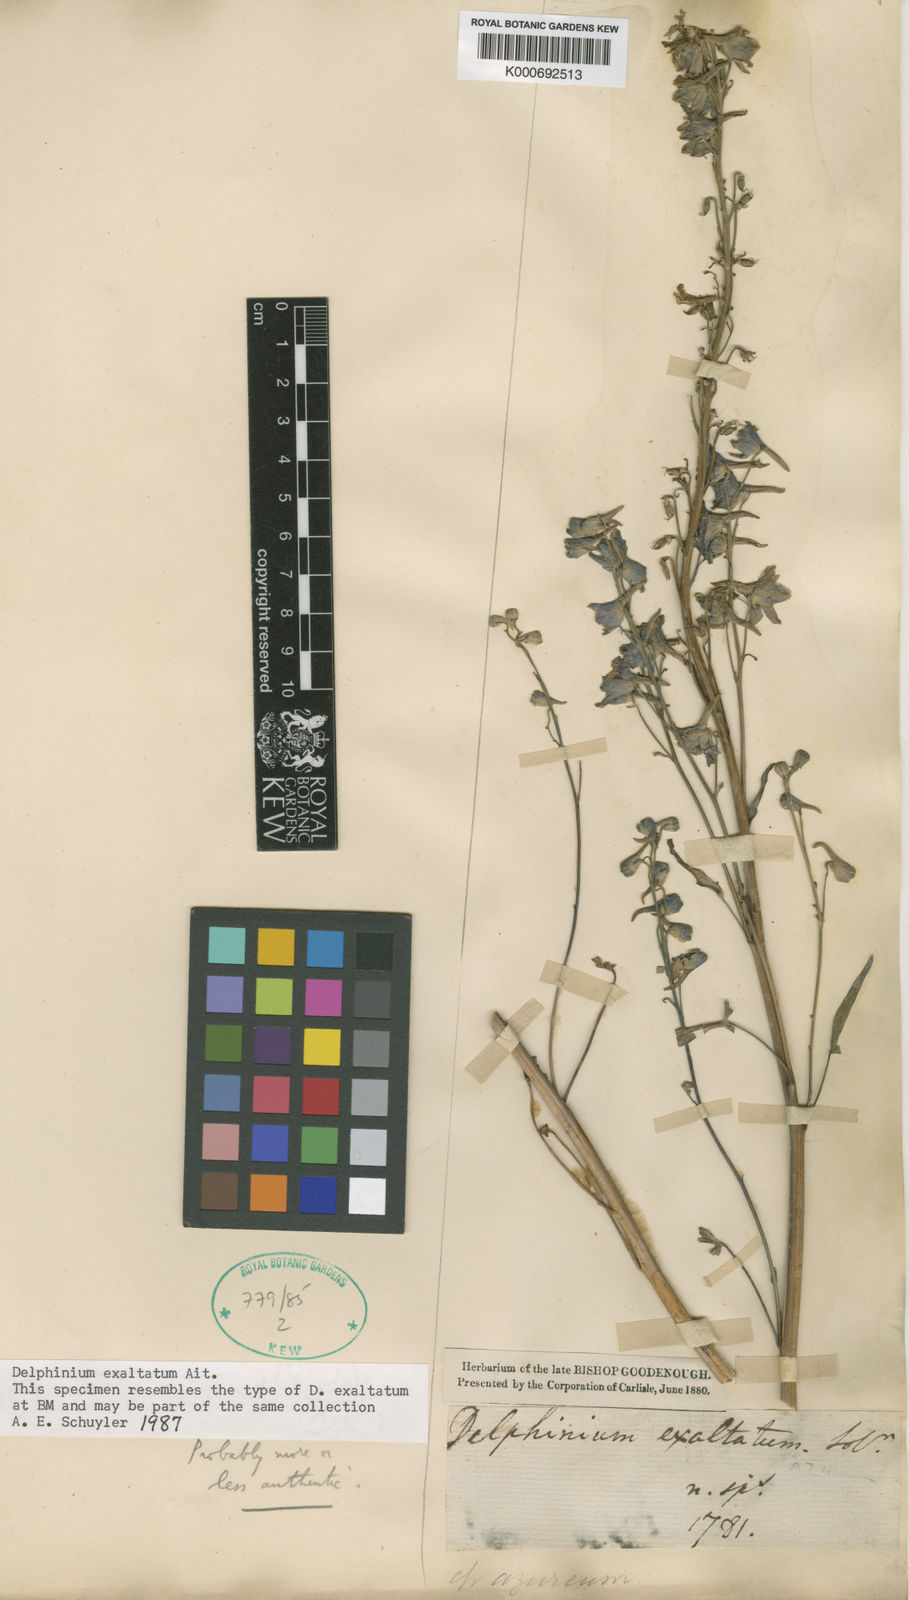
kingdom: Plantae
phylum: Tracheophyta
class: Magnoliopsida
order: Ranunculales
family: Ranunculaceae
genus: Delphinium
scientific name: Delphinium exaltatum
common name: Tall larkspur
